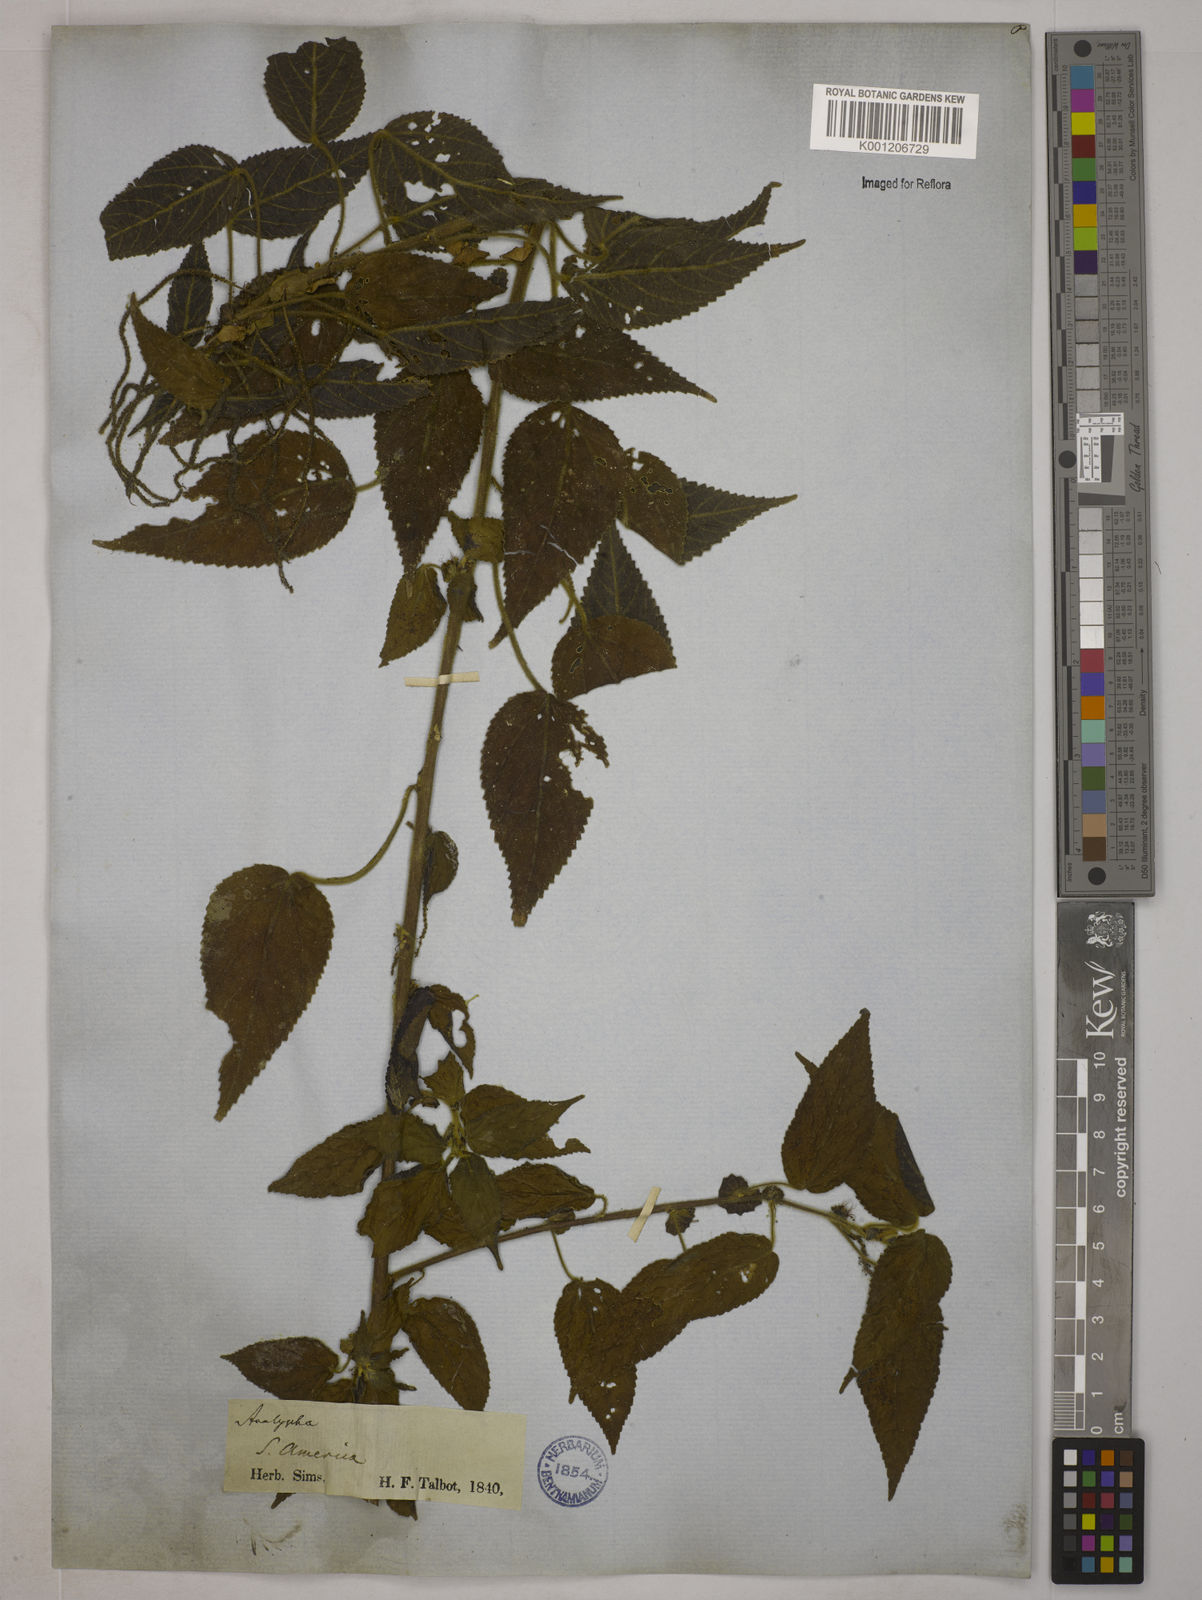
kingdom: Plantae
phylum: Tracheophyta
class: Magnoliopsida
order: Malpighiales
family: Euphorbiaceae
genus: Acalypha
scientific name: Acalypha
